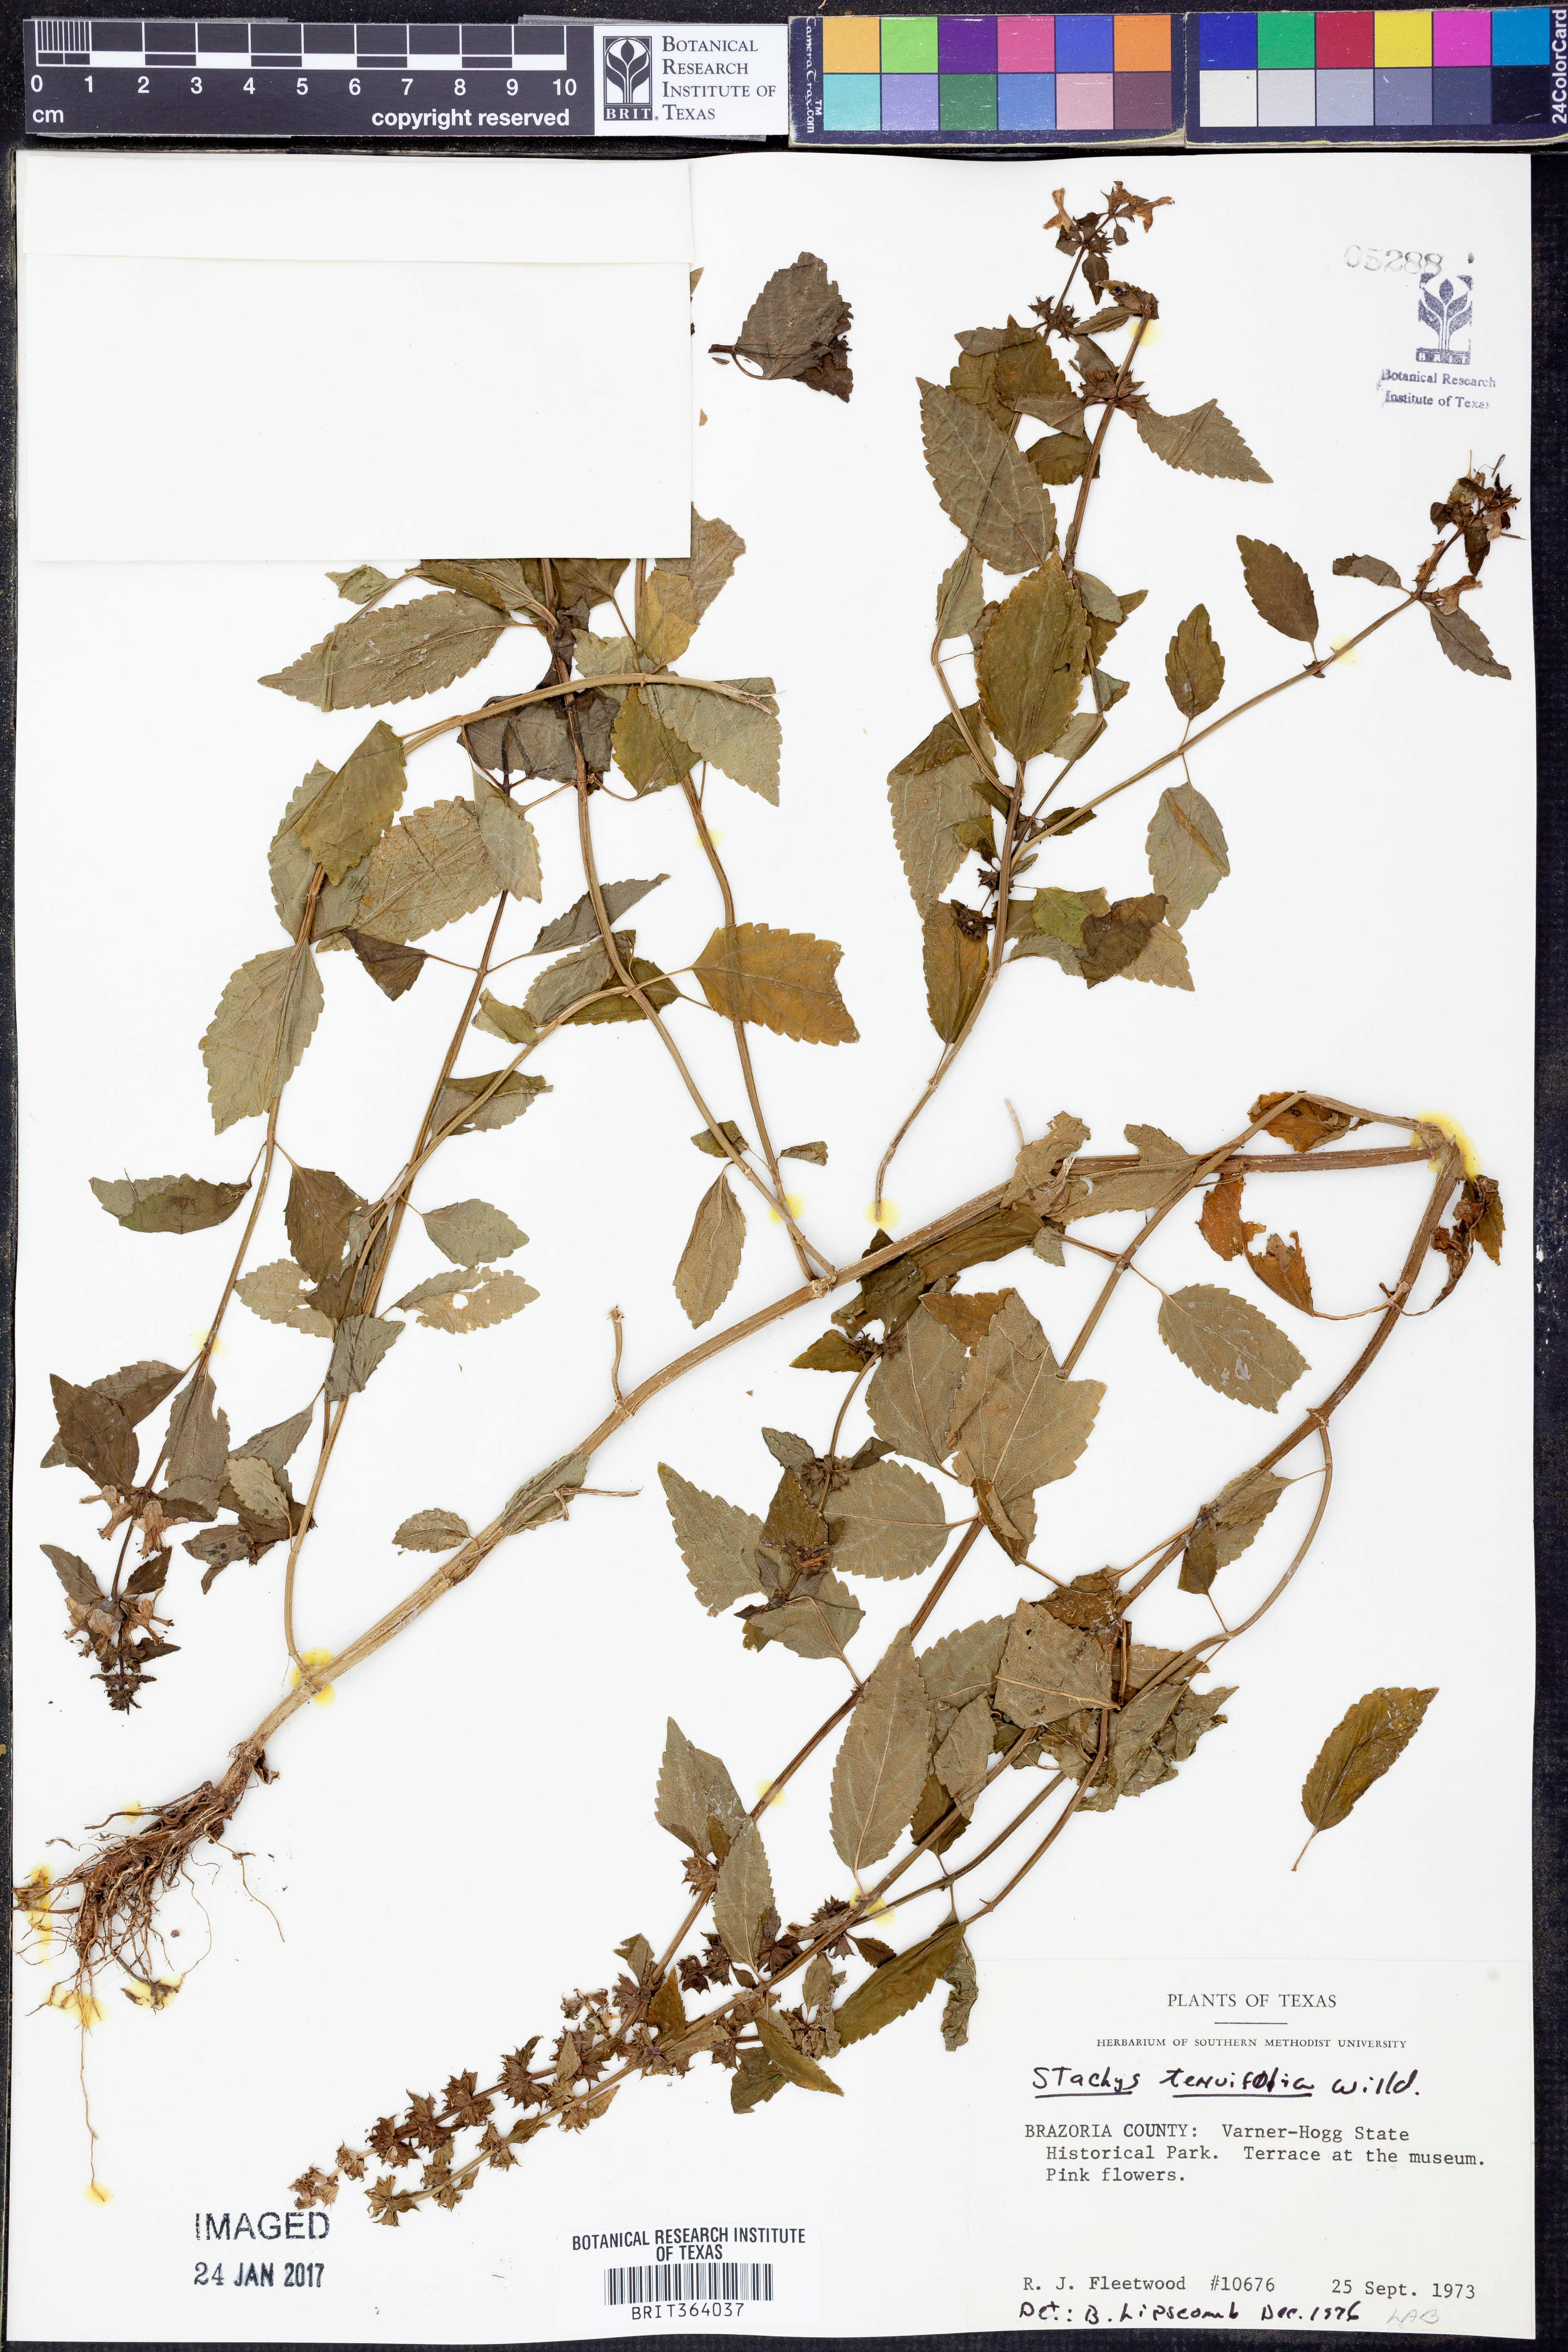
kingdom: Plantae
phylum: Tracheophyta
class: Magnoliopsida
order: Lamiales
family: Lamiaceae
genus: Stachys
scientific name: Stachys tenuifolia
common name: Smooth hedge-nettle
